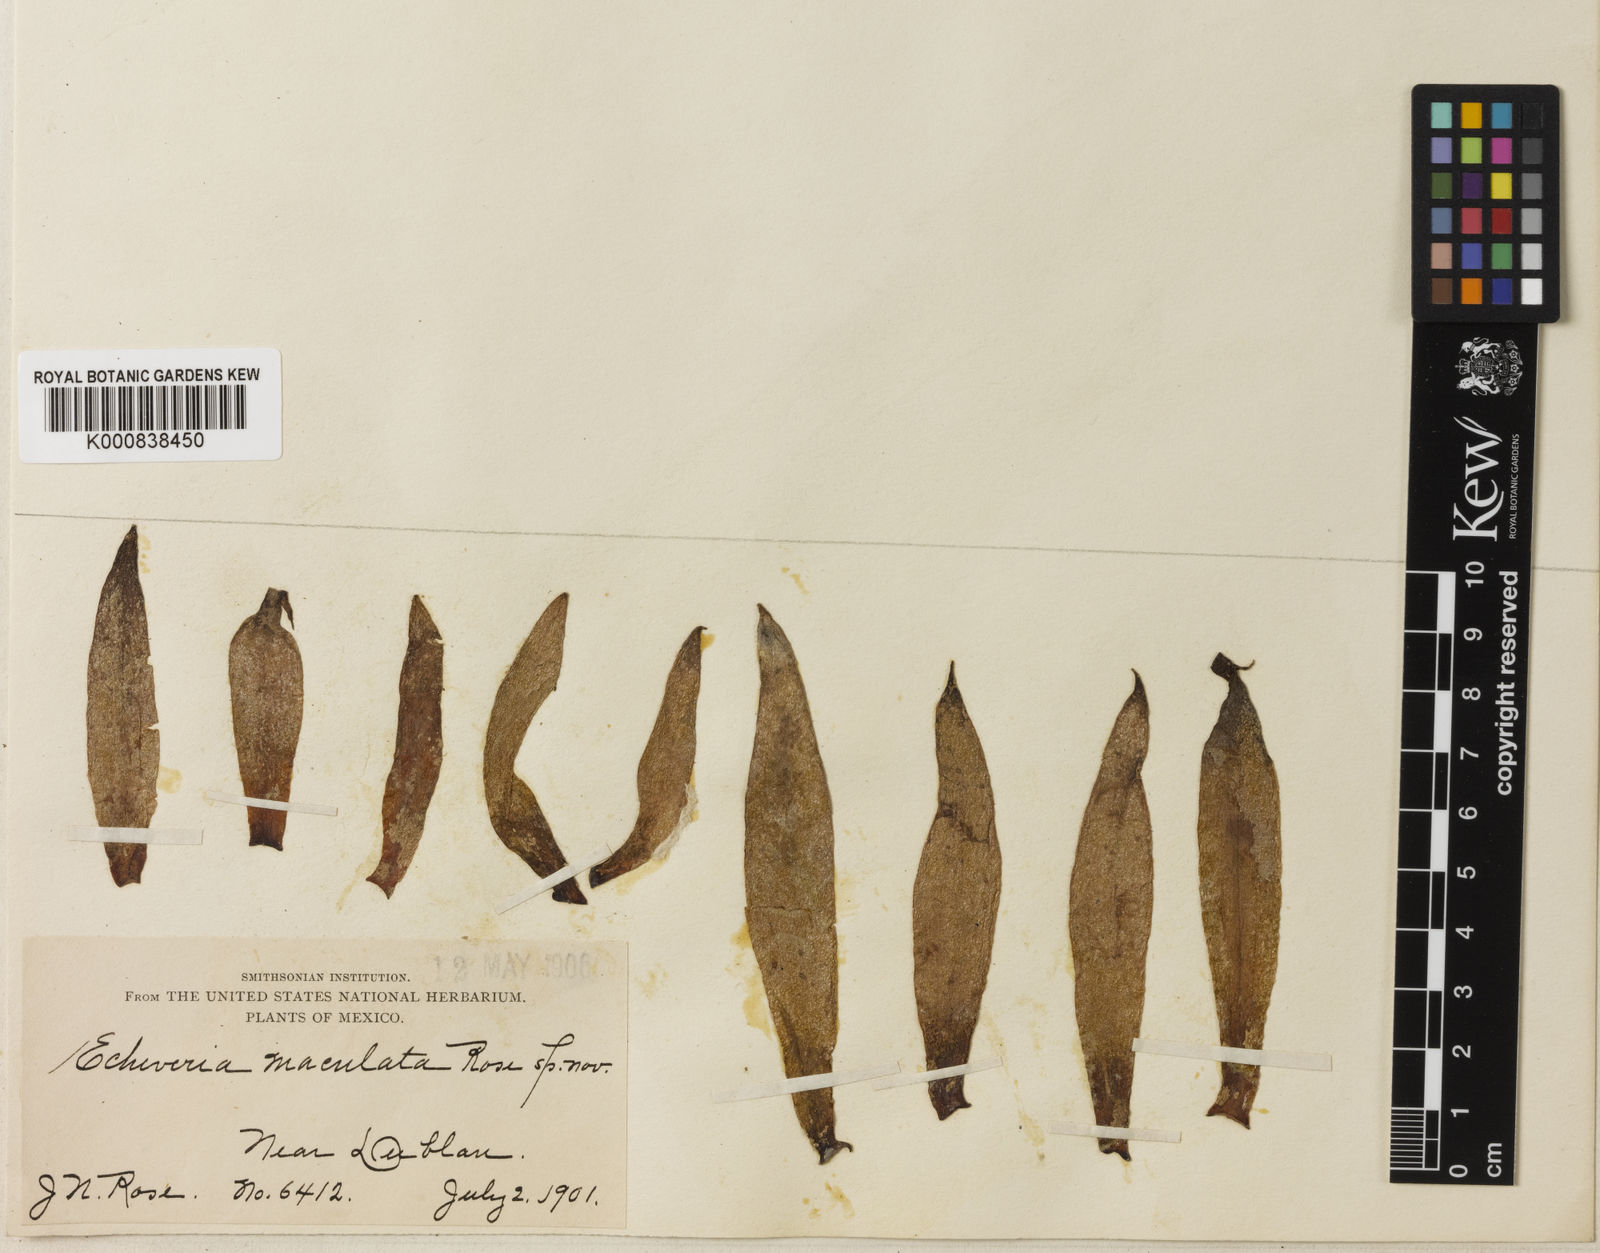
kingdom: Plantae
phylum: Tracheophyta
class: Magnoliopsida
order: Saxifragales
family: Crassulaceae
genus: Echeveria
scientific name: Echeveria paniculata
